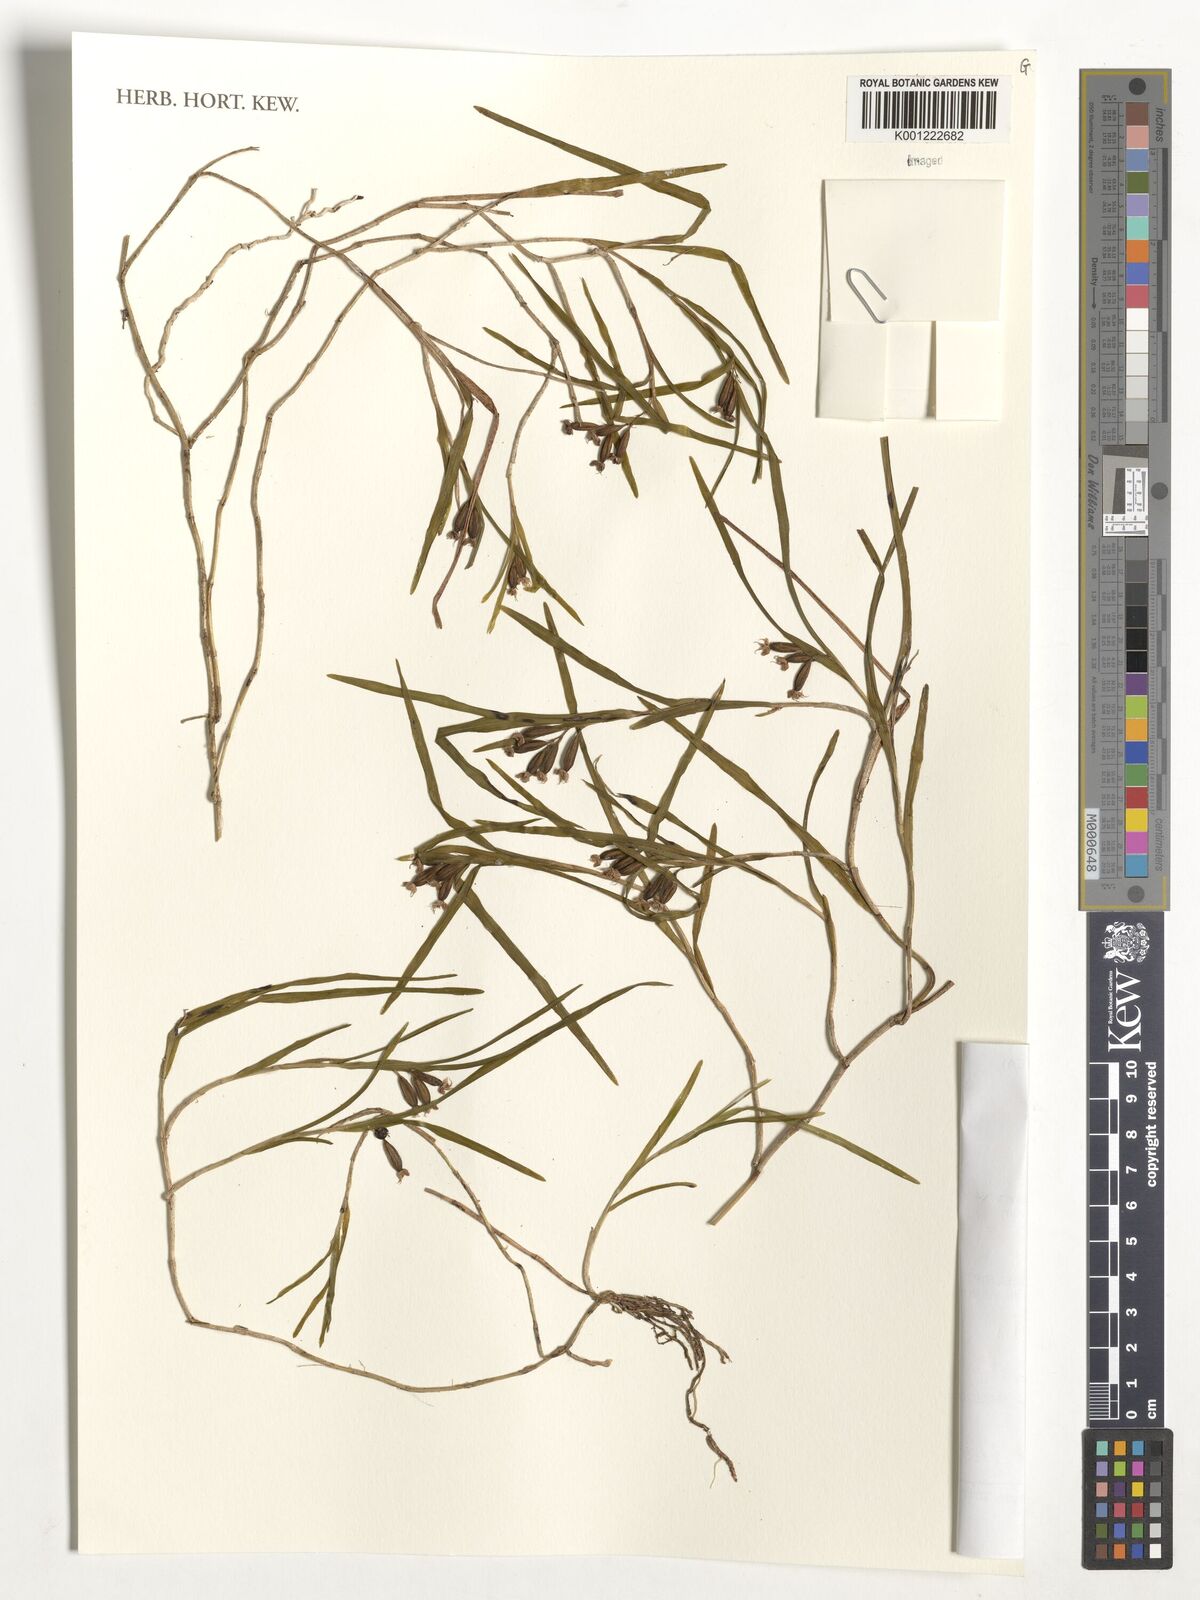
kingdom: Plantae
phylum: Tracheophyta
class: Liliopsida
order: Asparagales
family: Orchidaceae
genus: Polystachya
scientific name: Polystachya lindblomii
